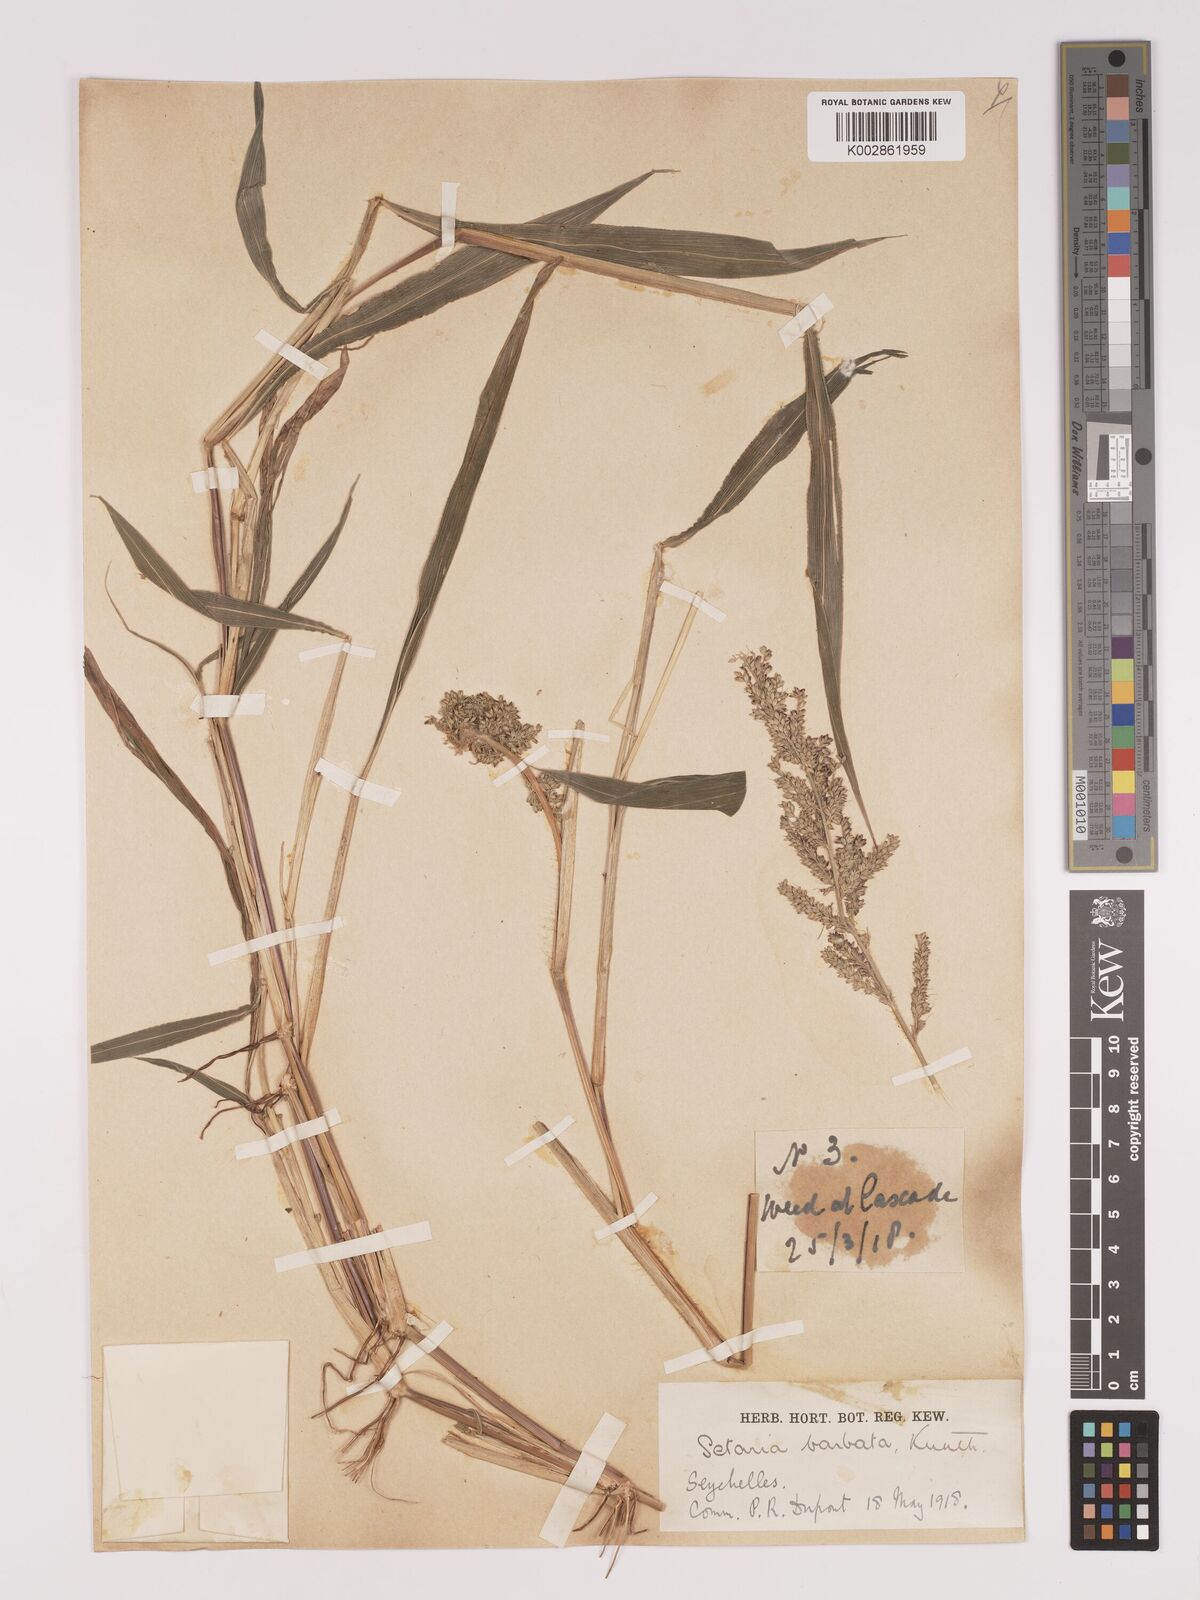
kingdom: Plantae
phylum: Tracheophyta
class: Liliopsida
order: Poales
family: Poaceae
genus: Setaria
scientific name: Setaria barbata
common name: East indian bristlegrass
